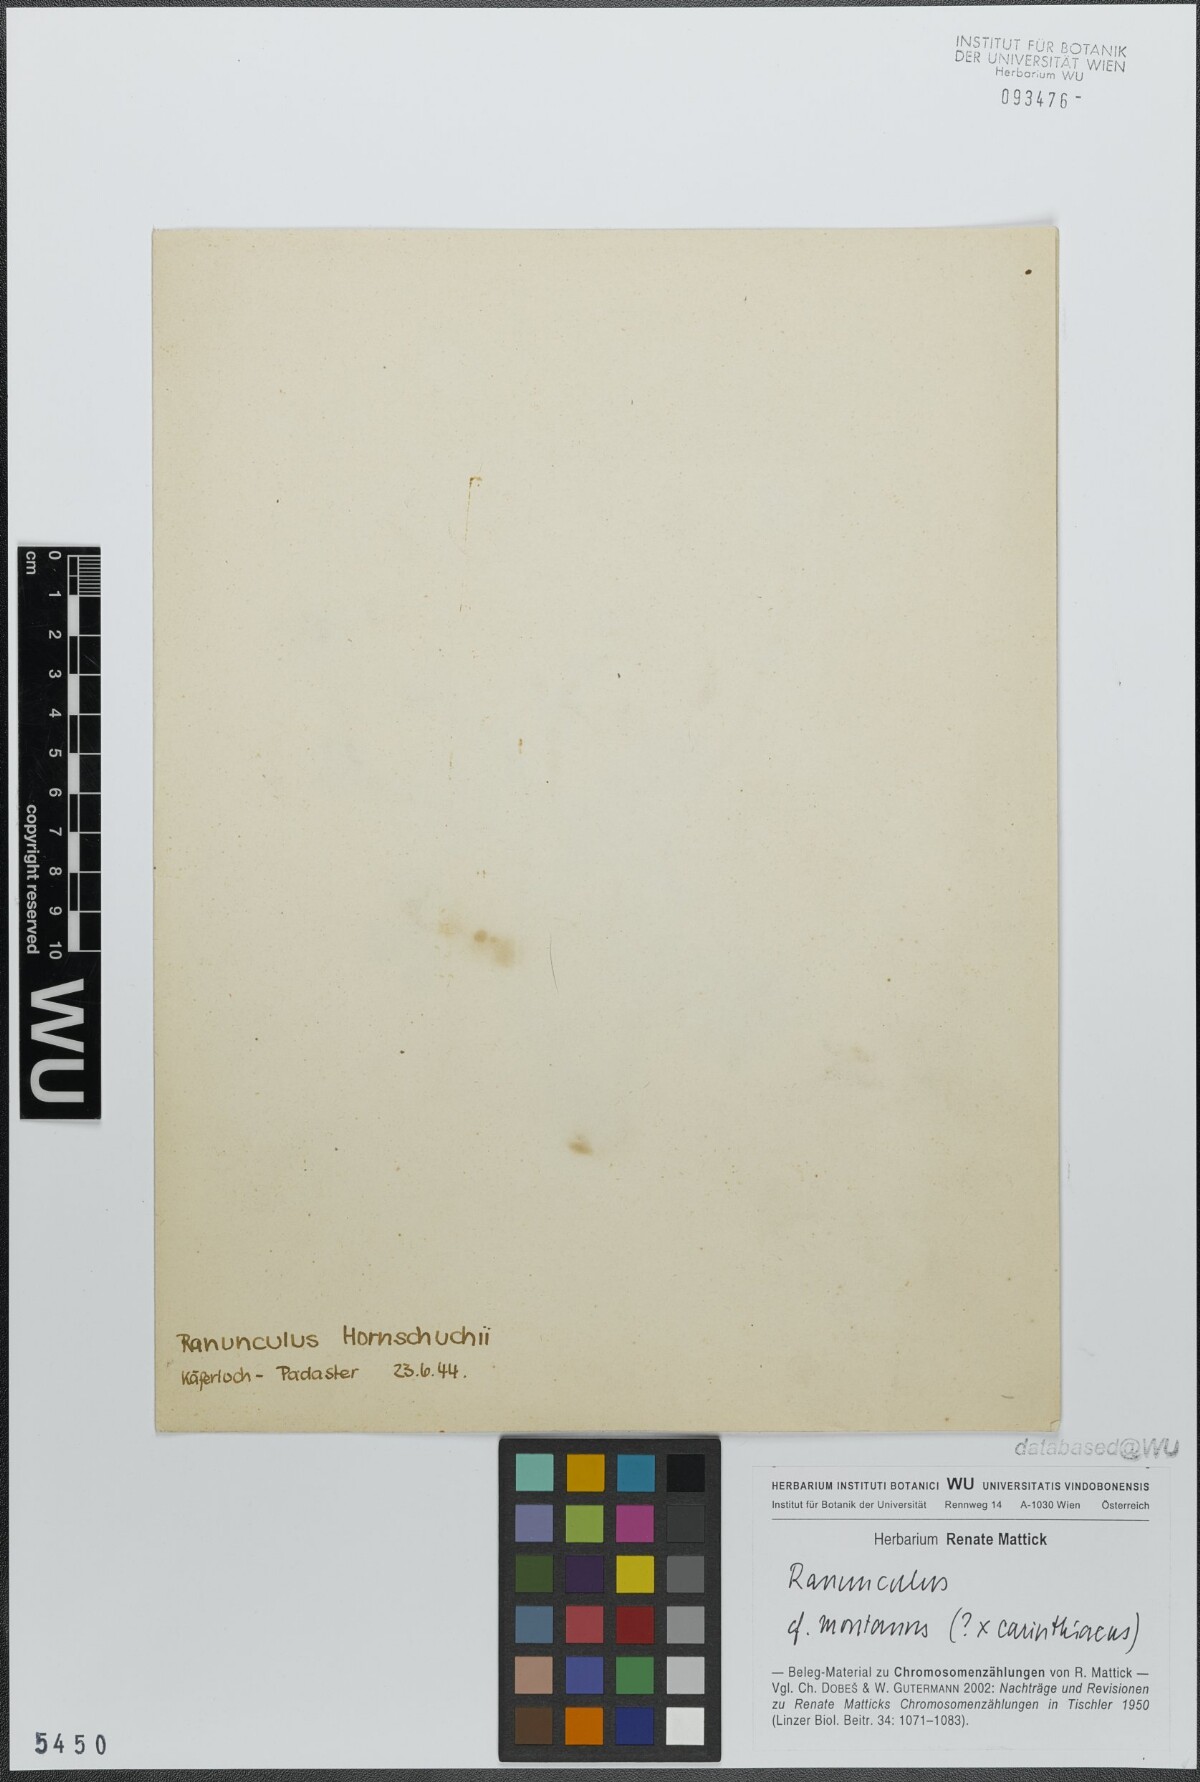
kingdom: Plantae
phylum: Tracheophyta
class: Magnoliopsida
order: Ranunculales
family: Ranunculaceae
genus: Ranunculus
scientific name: Ranunculus montanus
